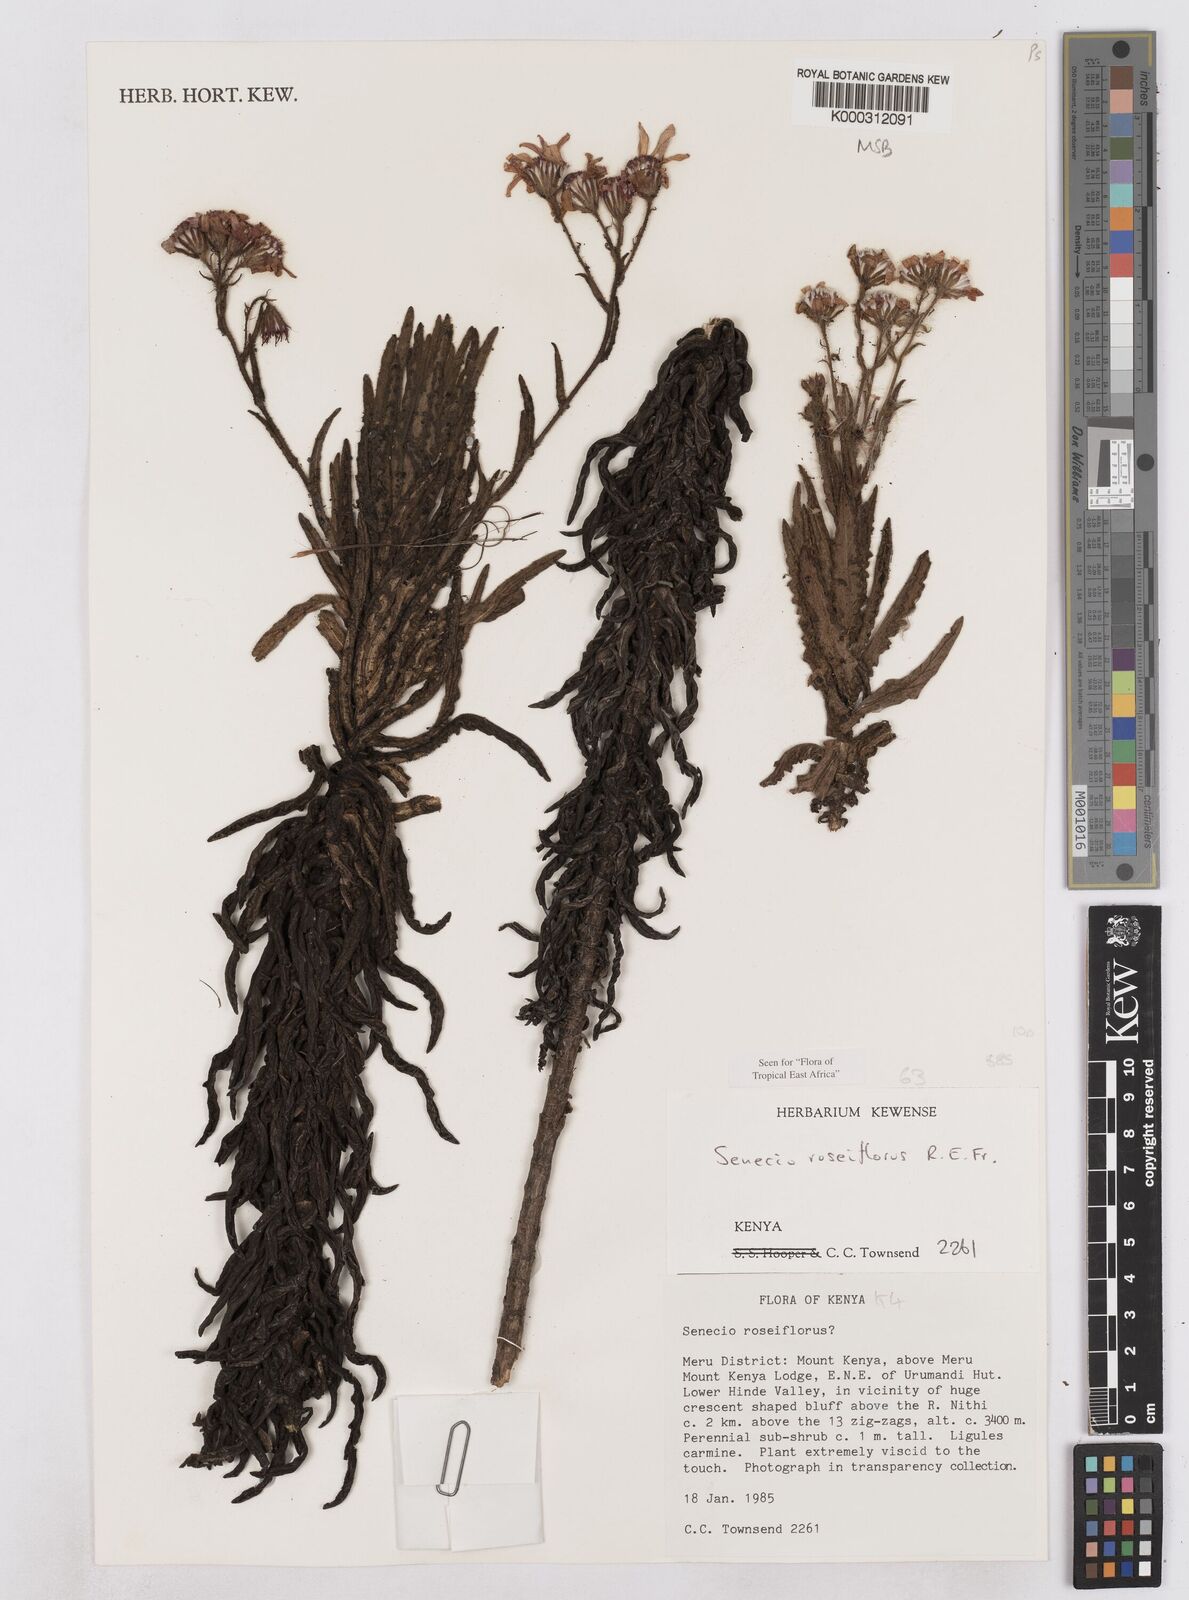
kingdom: Plantae
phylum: Tracheophyta
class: Magnoliopsida
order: Asterales
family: Asteraceae
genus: Senecio
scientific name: Senecio roseiflorus
